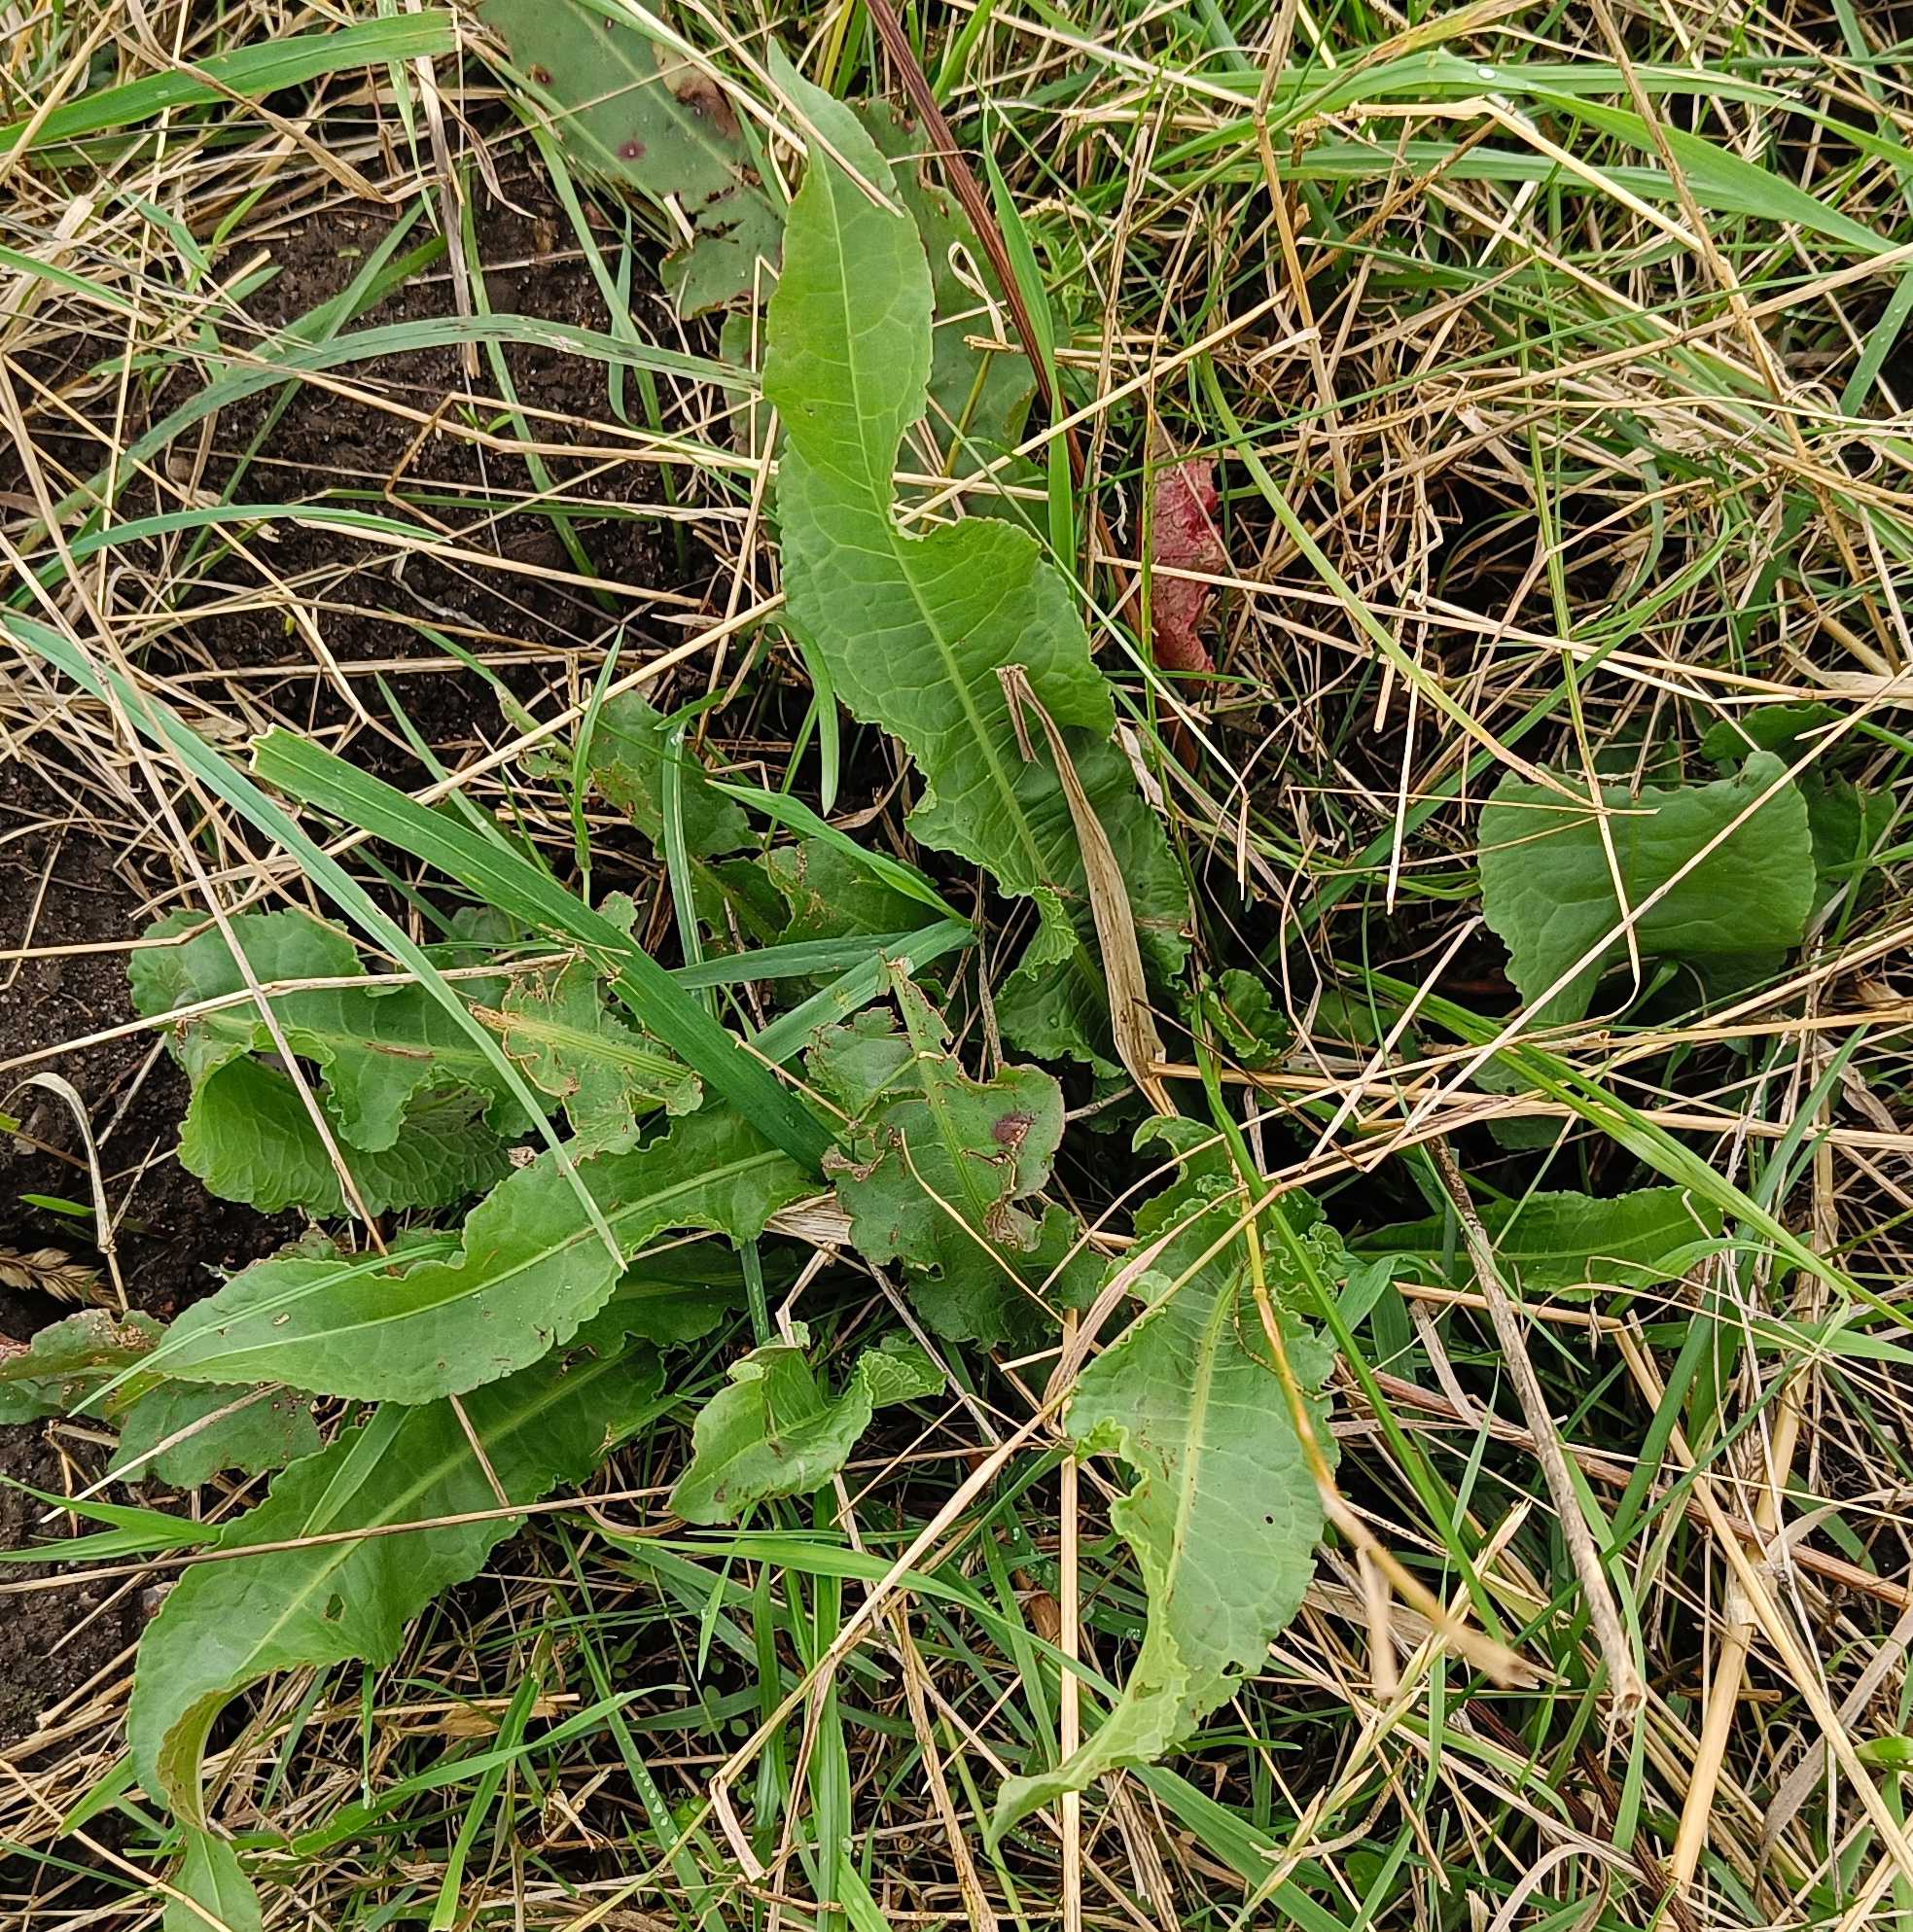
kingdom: Plantae
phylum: Tracheophyta
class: Magnoliopsida
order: Caryophyllales
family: Polygonaceae
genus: Rumex
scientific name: Rumex crispus
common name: Kruset skræppe
